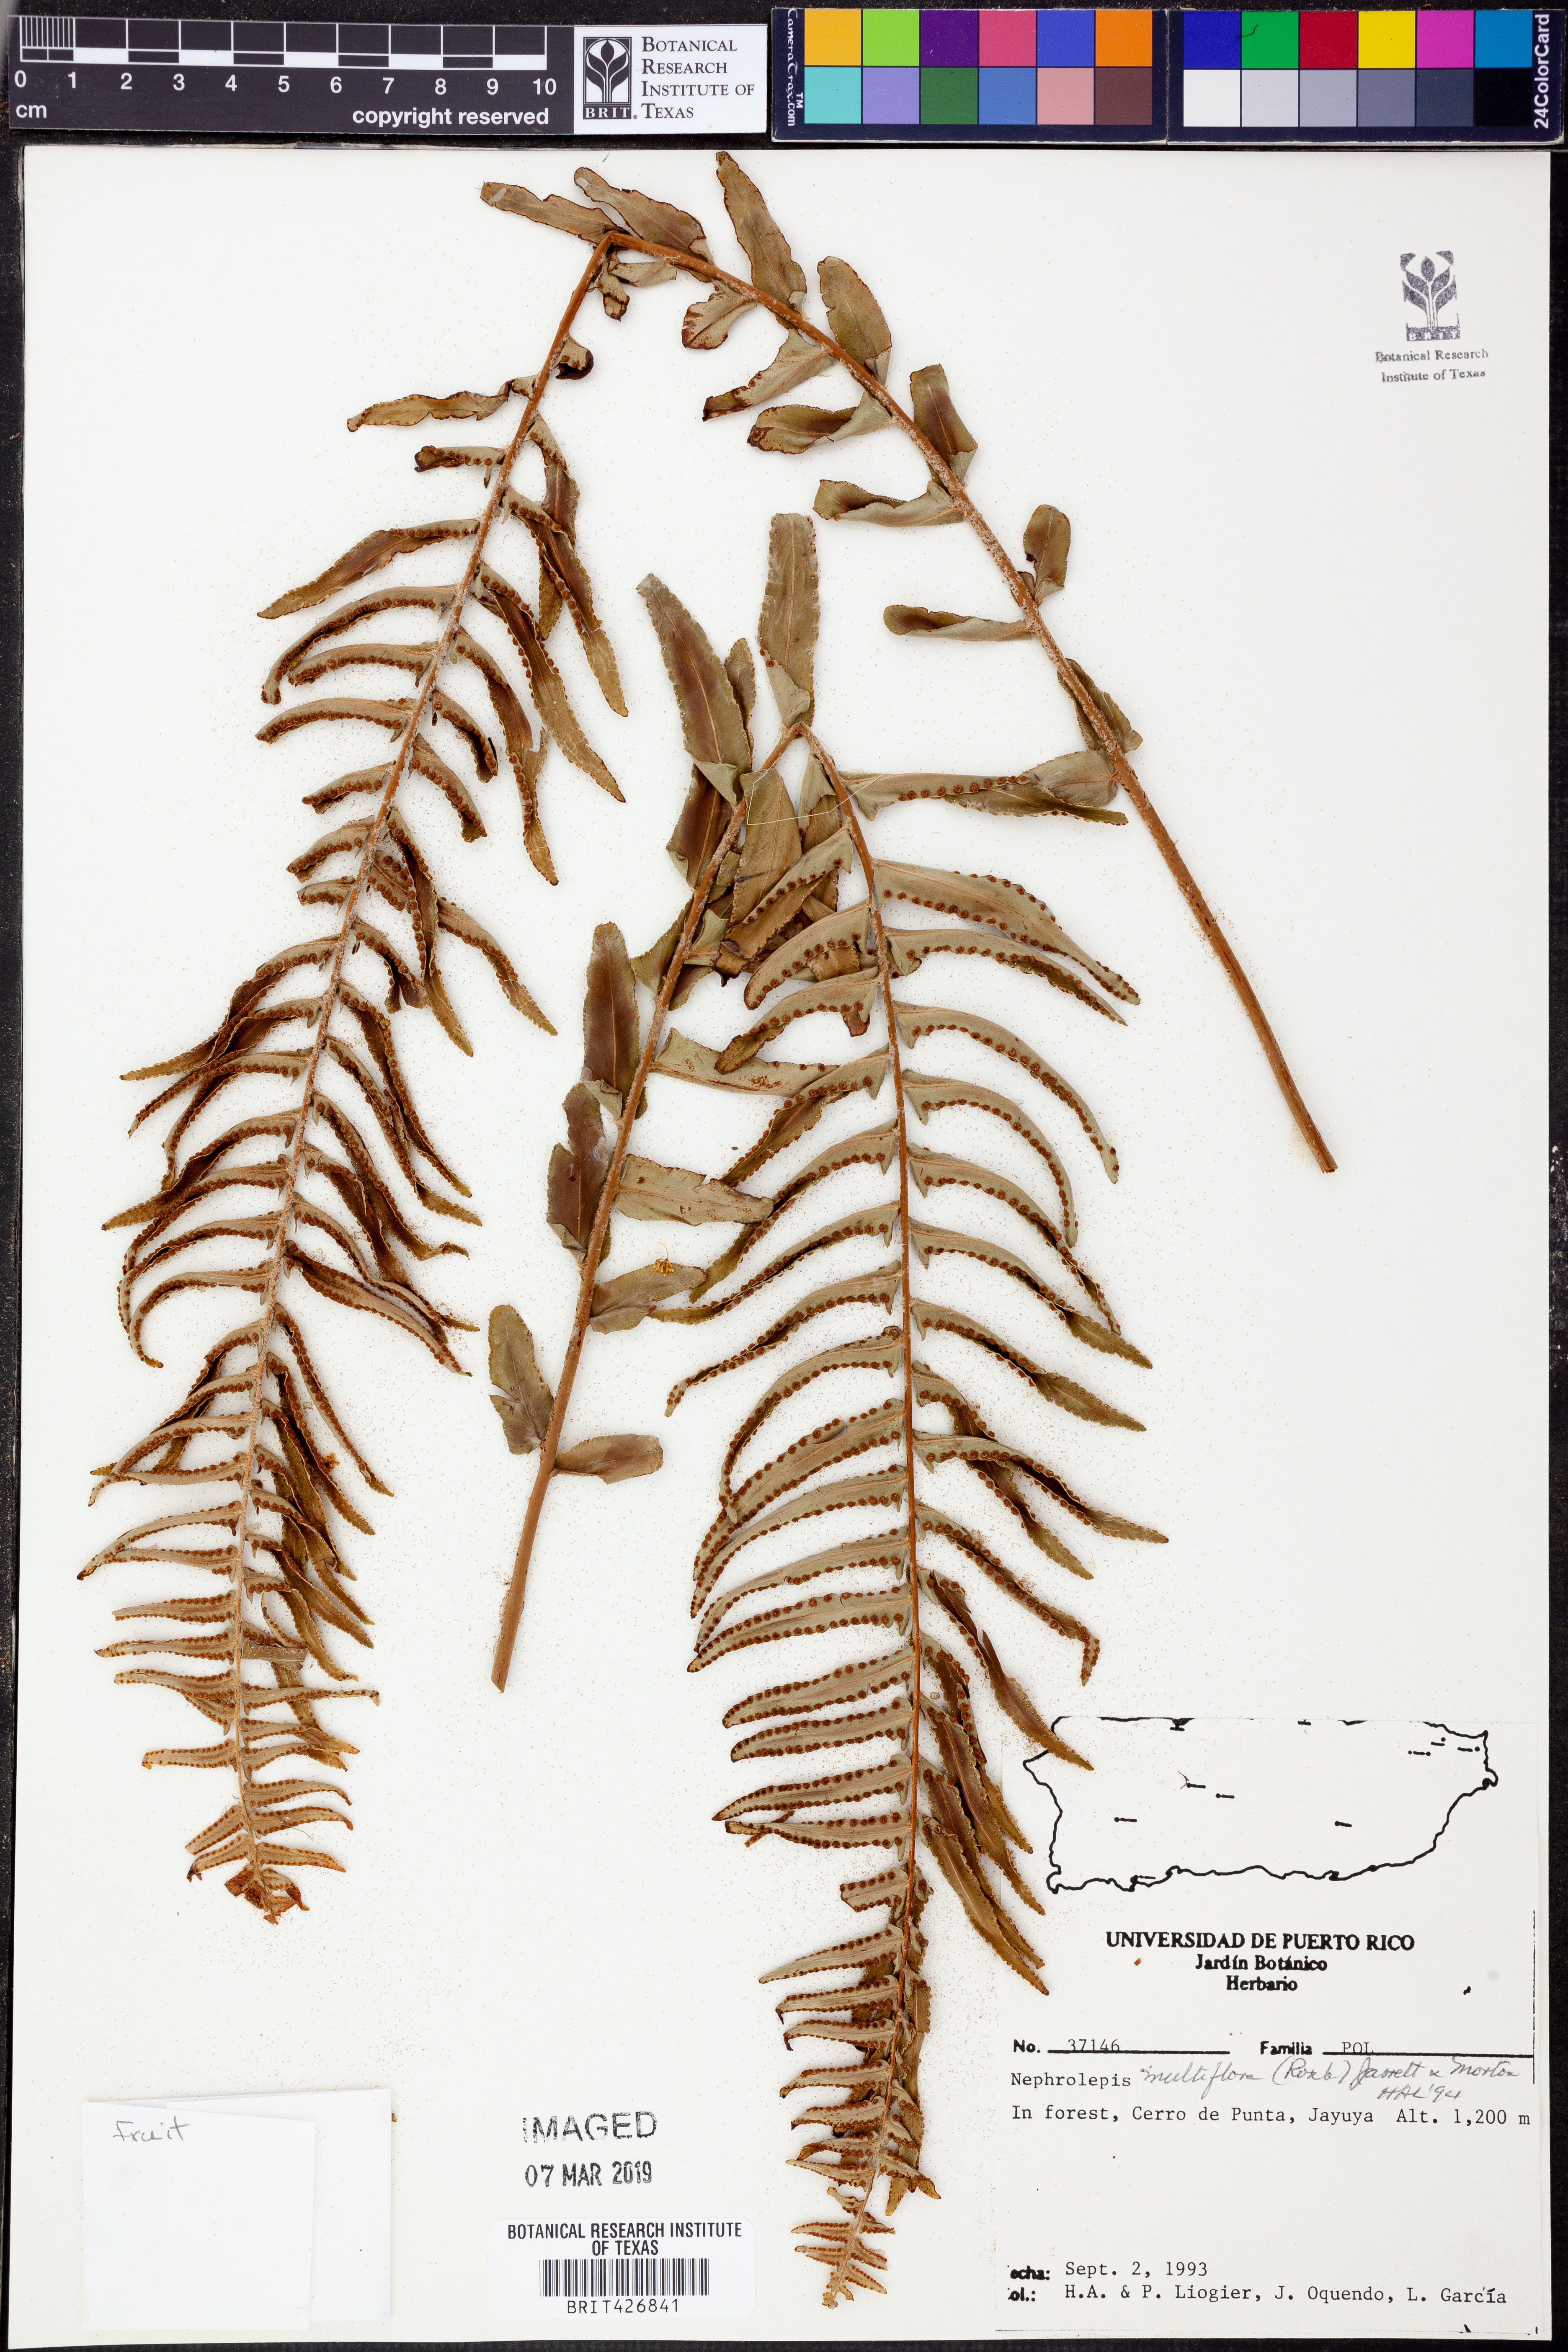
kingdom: Plantae
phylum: Tracheophyta
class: Polypodiopsida
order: Polypodiales
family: Nephrolepidaceae
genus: Nephrolepis
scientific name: Nephrolepis brownii
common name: Asian swordfern
